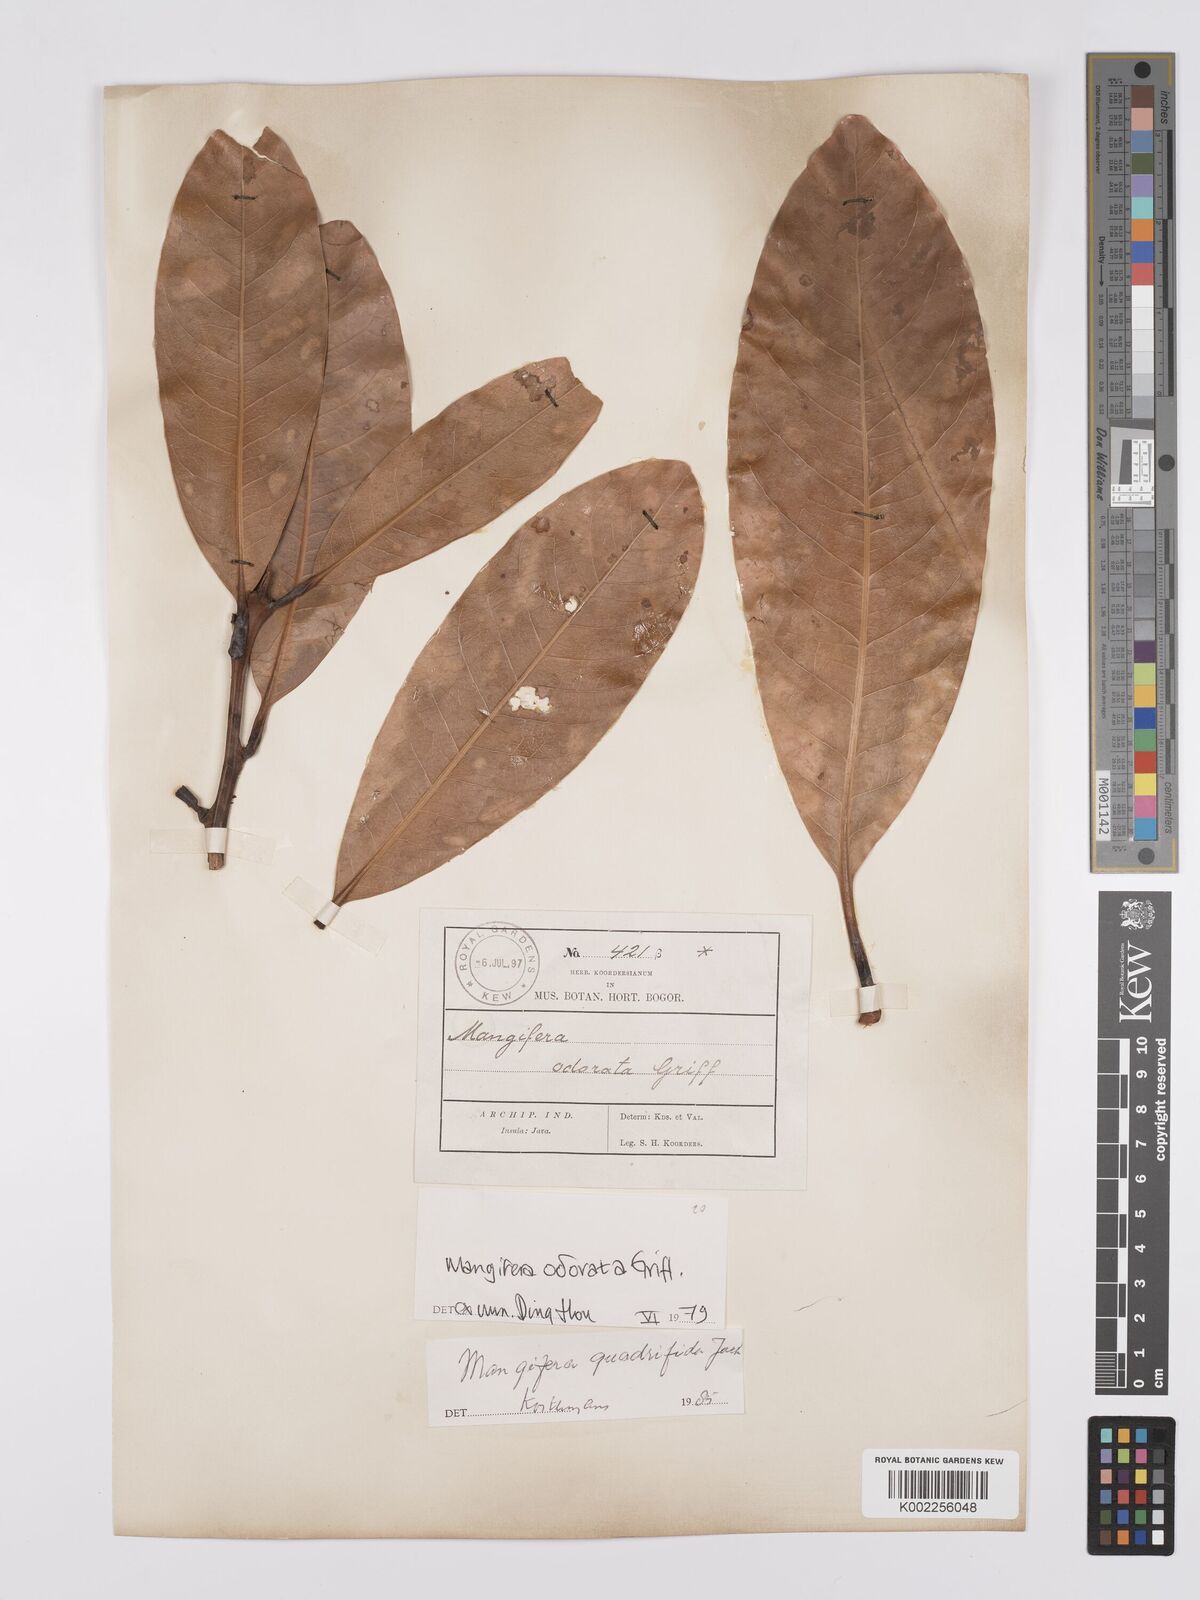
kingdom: Plantae
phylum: Tracheophyta
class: Magnoliopsida
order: Sapindales
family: Anacardiaceae
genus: Mangifera
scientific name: Mangifera odorata
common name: Saipan mango
